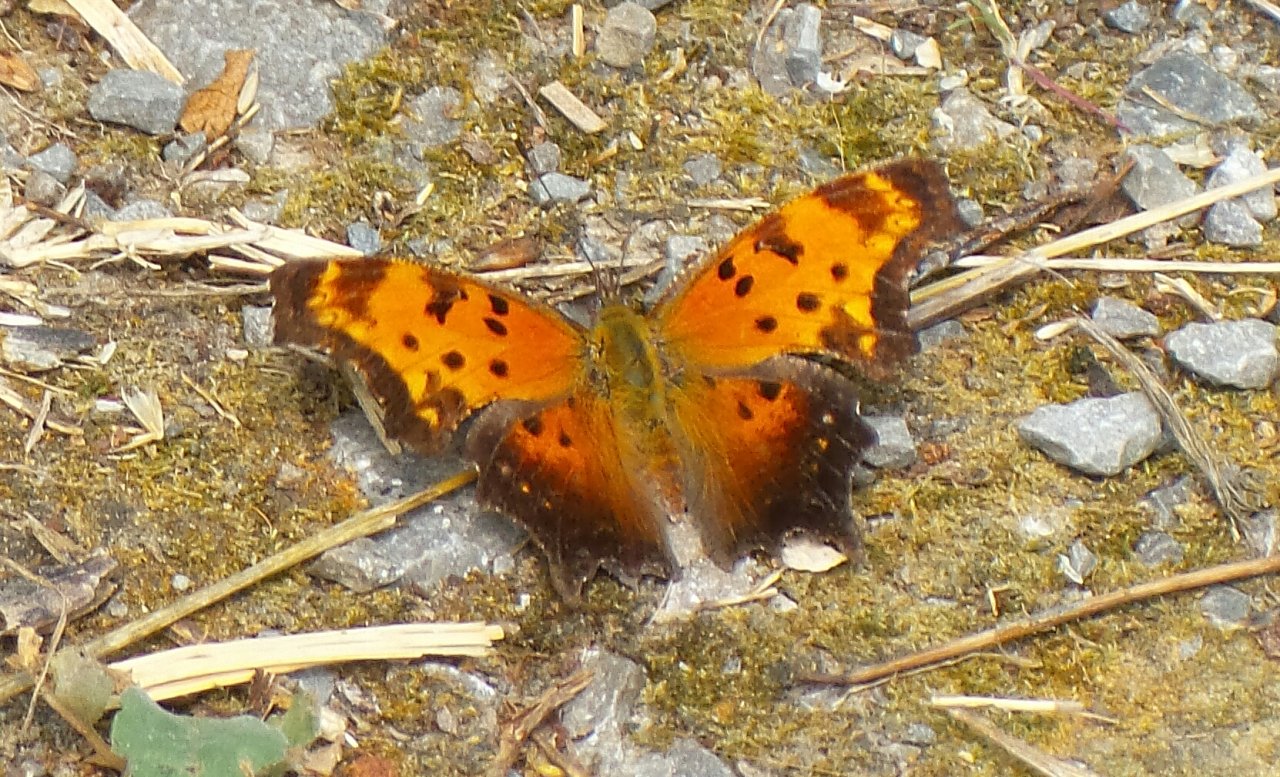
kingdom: Animalia
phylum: Arthropoda
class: Insecta
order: Lepidoptera
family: Nymphalidae
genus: Polygonia
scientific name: Polygonia progne
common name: Gray Comma
